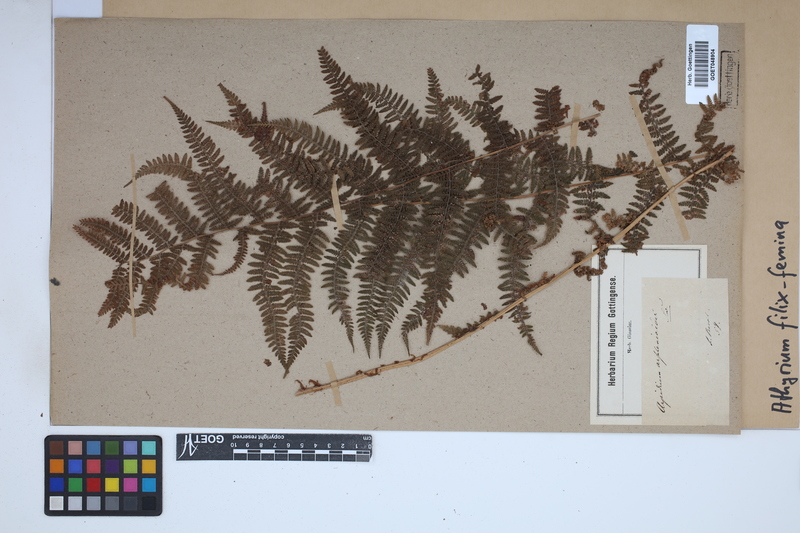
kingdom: Plantae
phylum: Tracheophyta
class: Polypodiopsida
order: Polypodiales
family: Athyriaceae
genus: Athyrium
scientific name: Athyrium filix-femina
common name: Lady fern
